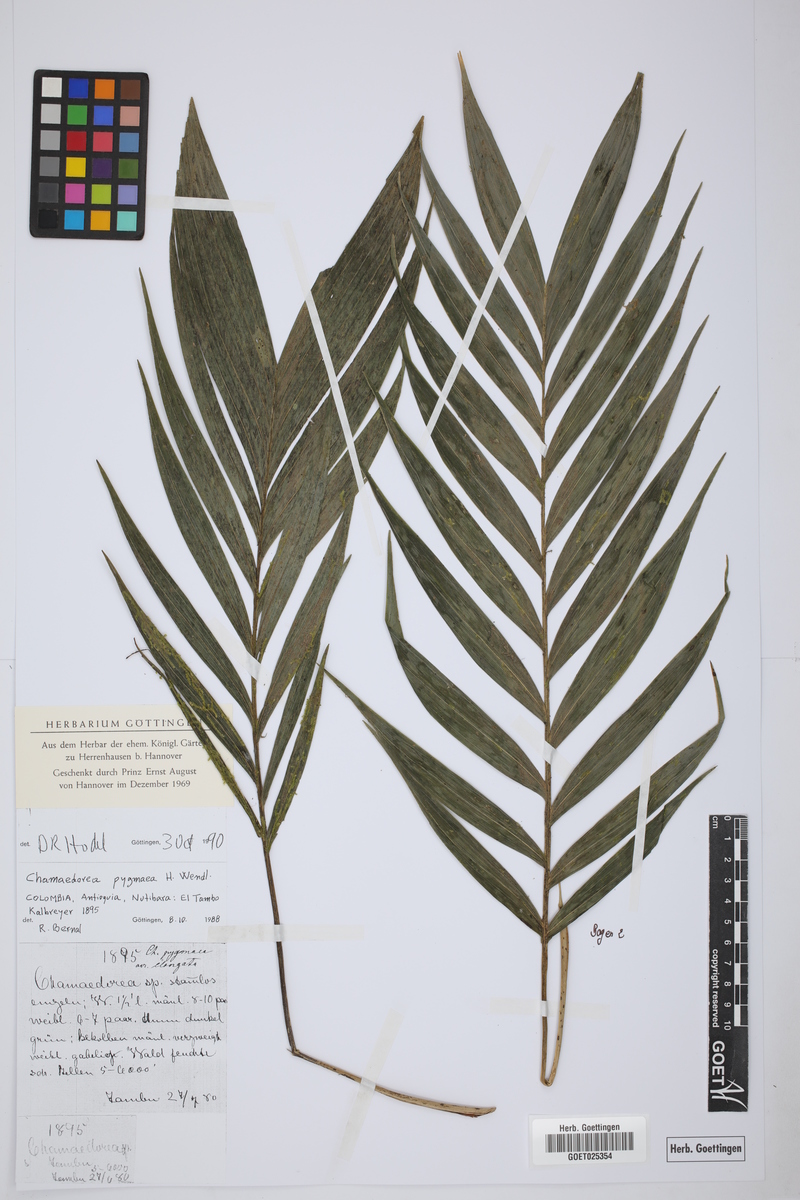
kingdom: Plantae
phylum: Tracheophyta
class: Liliopsida
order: Arecales
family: Arecaceae
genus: Chamaedorea
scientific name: Chamaedorea pygmaea
